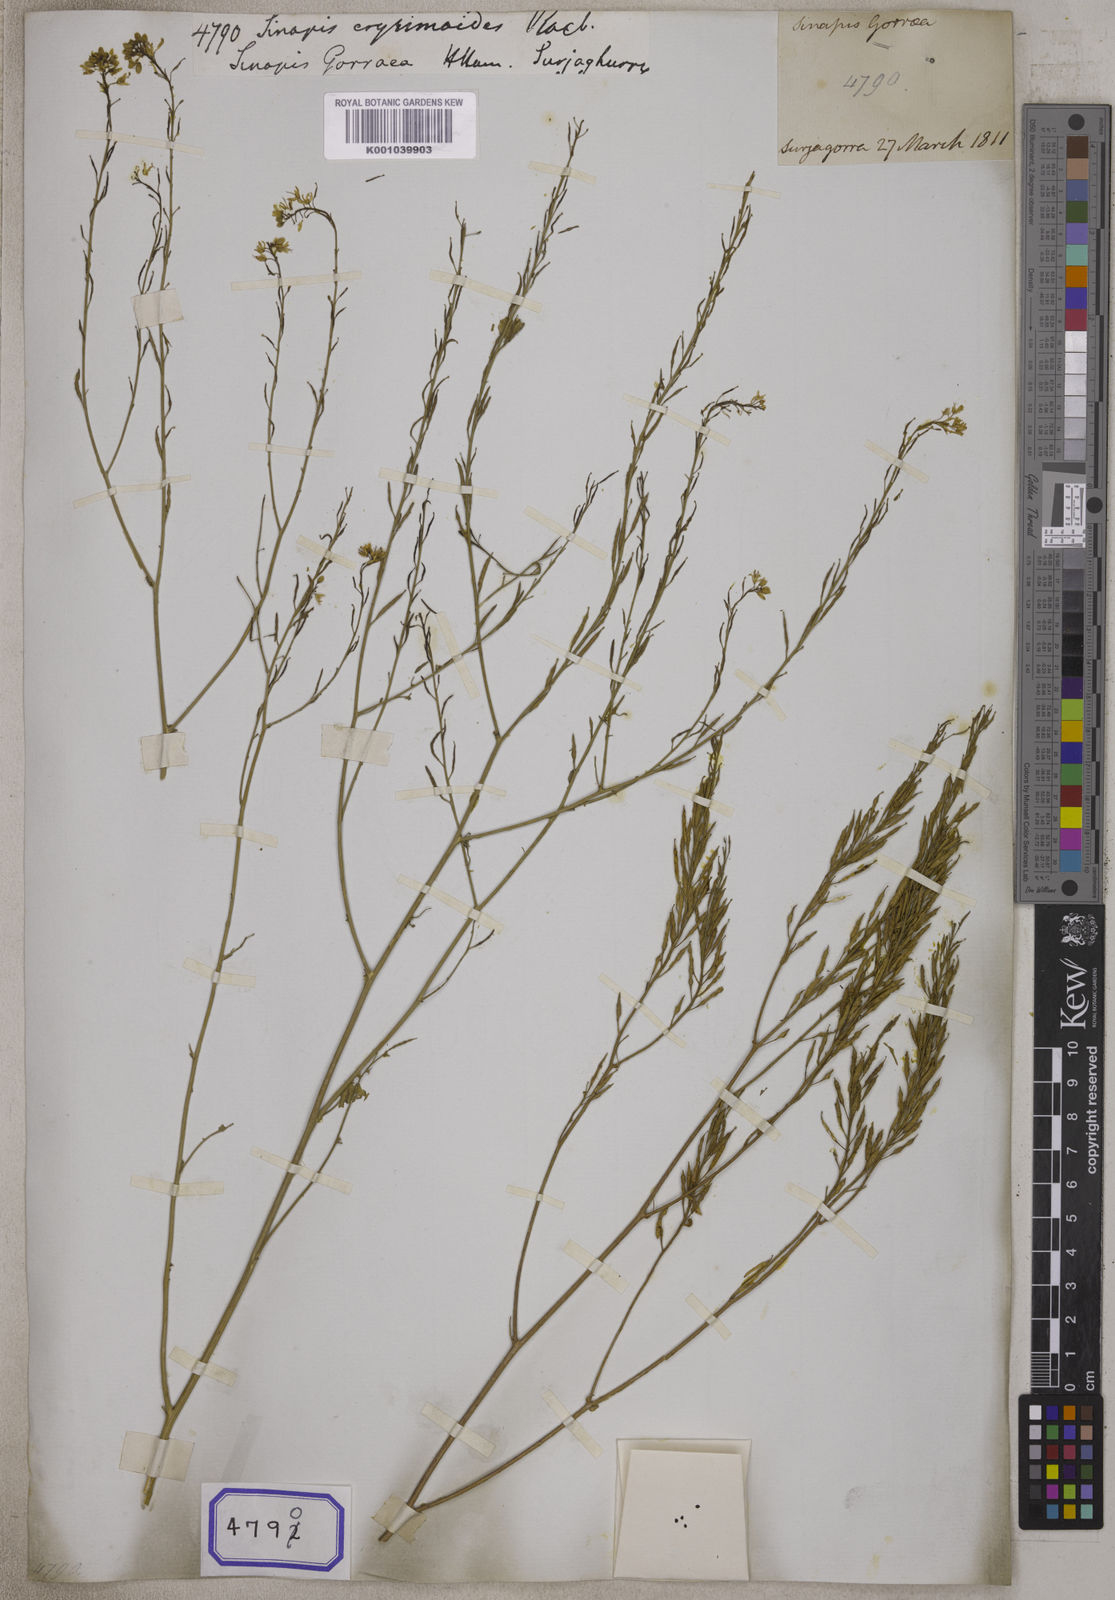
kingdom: Plantae
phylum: Tracheophyta
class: Magnoliopsida
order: Brassicales
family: Brassicaceae
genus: Brassica
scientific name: Brassica nigra
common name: Black mustard
